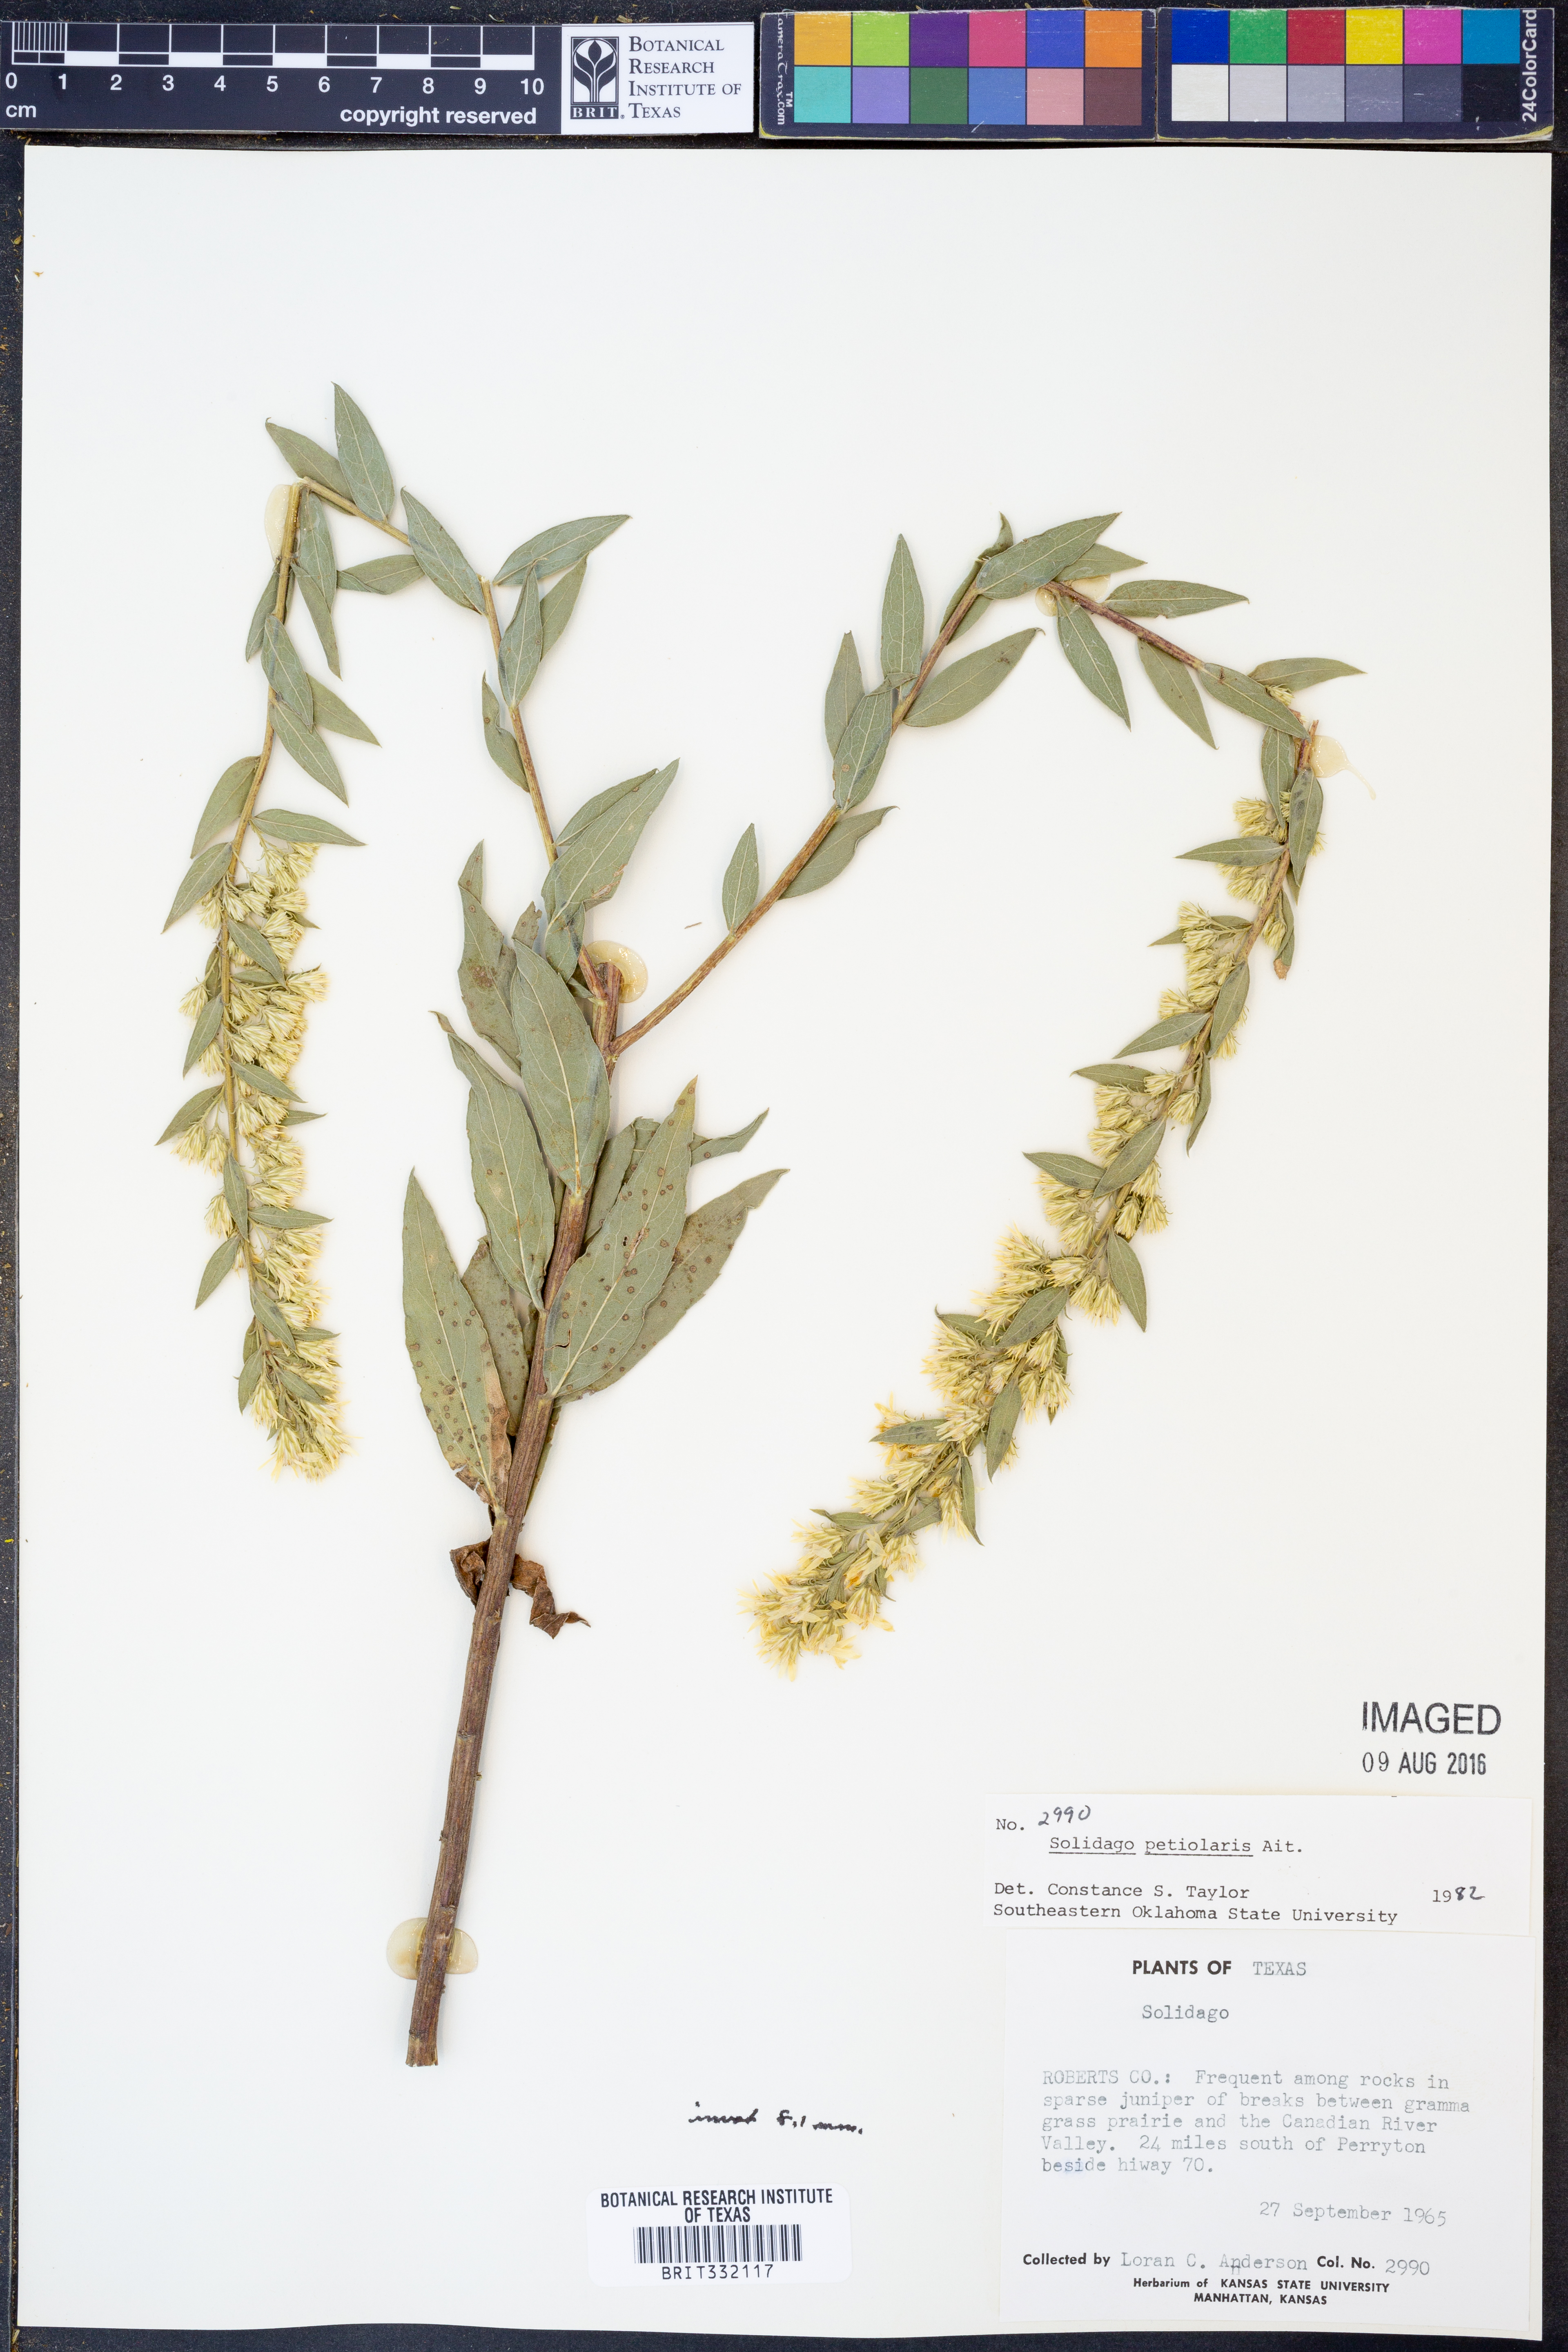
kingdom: Plantae
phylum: Tracheophyta
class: Magnoliopsida
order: Asterales
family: Asteraceae
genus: Solidago
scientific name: Solidago petiolaris
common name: Downy ragged goldenrod
